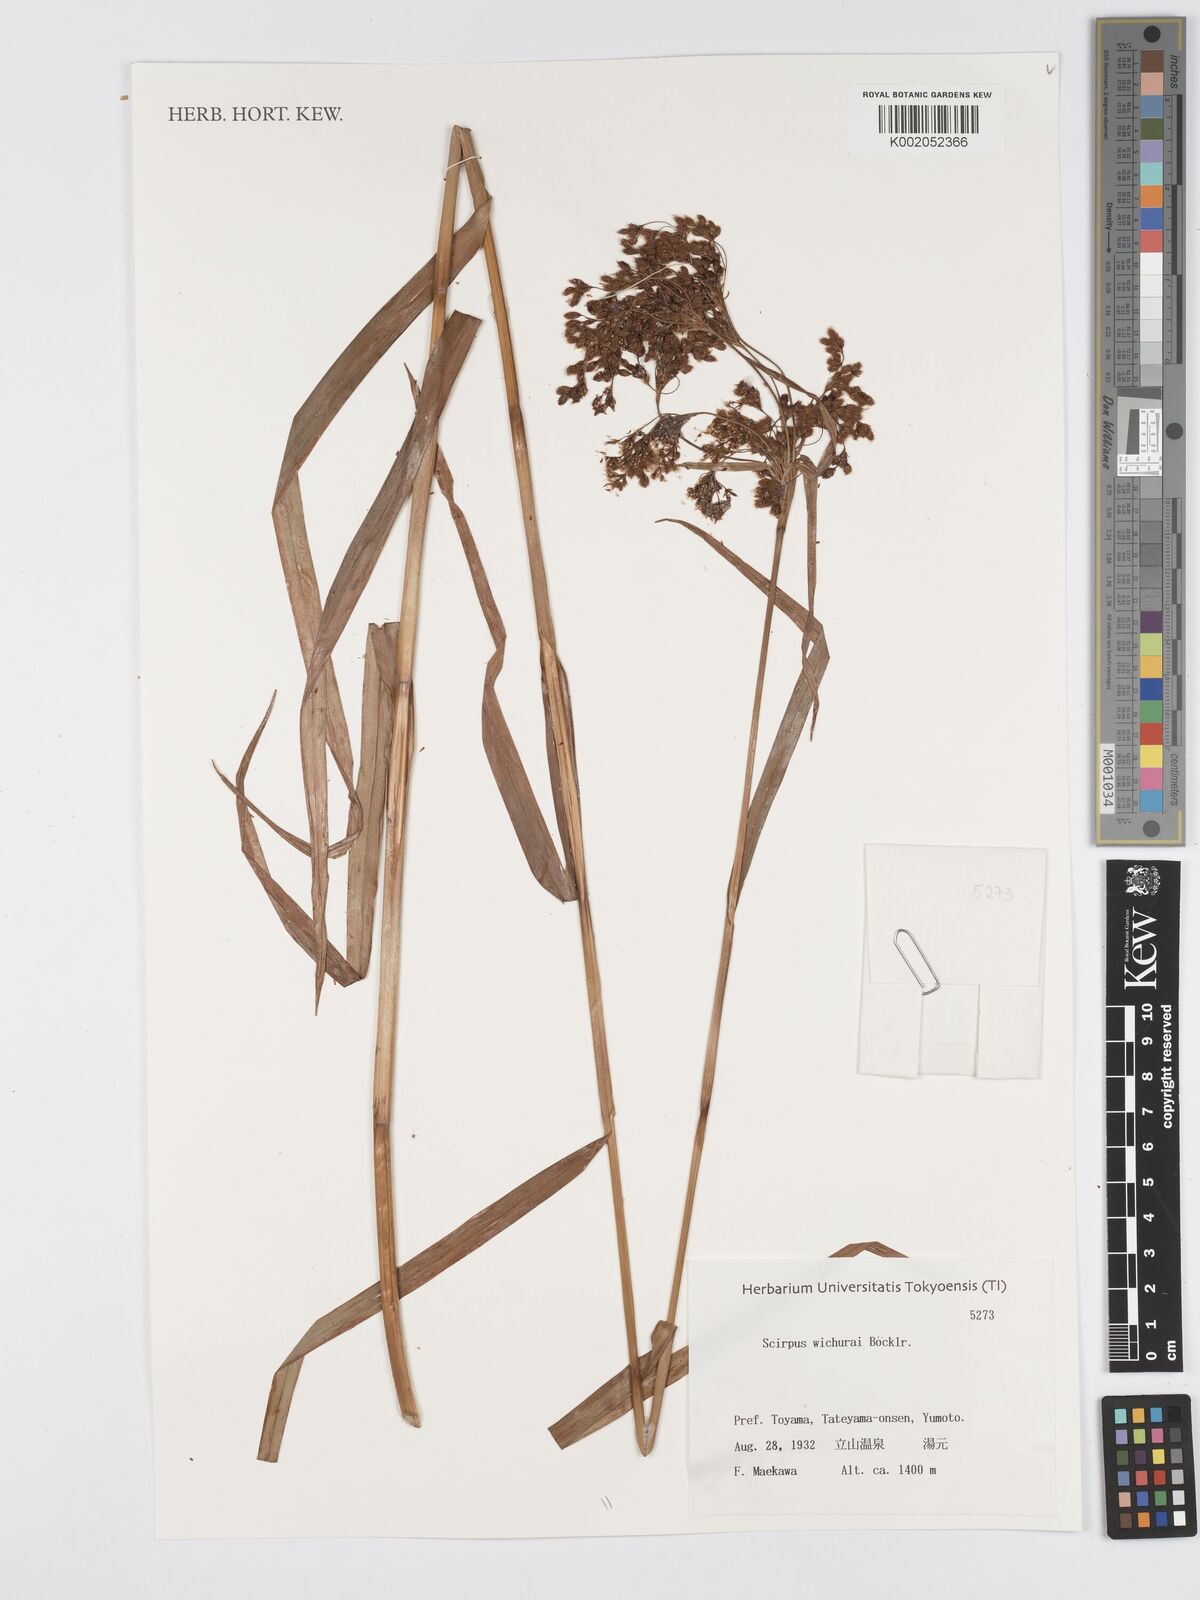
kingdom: Plantae
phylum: Tracheophyta
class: Liliopsida
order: Poales
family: Cyperaceae
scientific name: Cyperaceae
